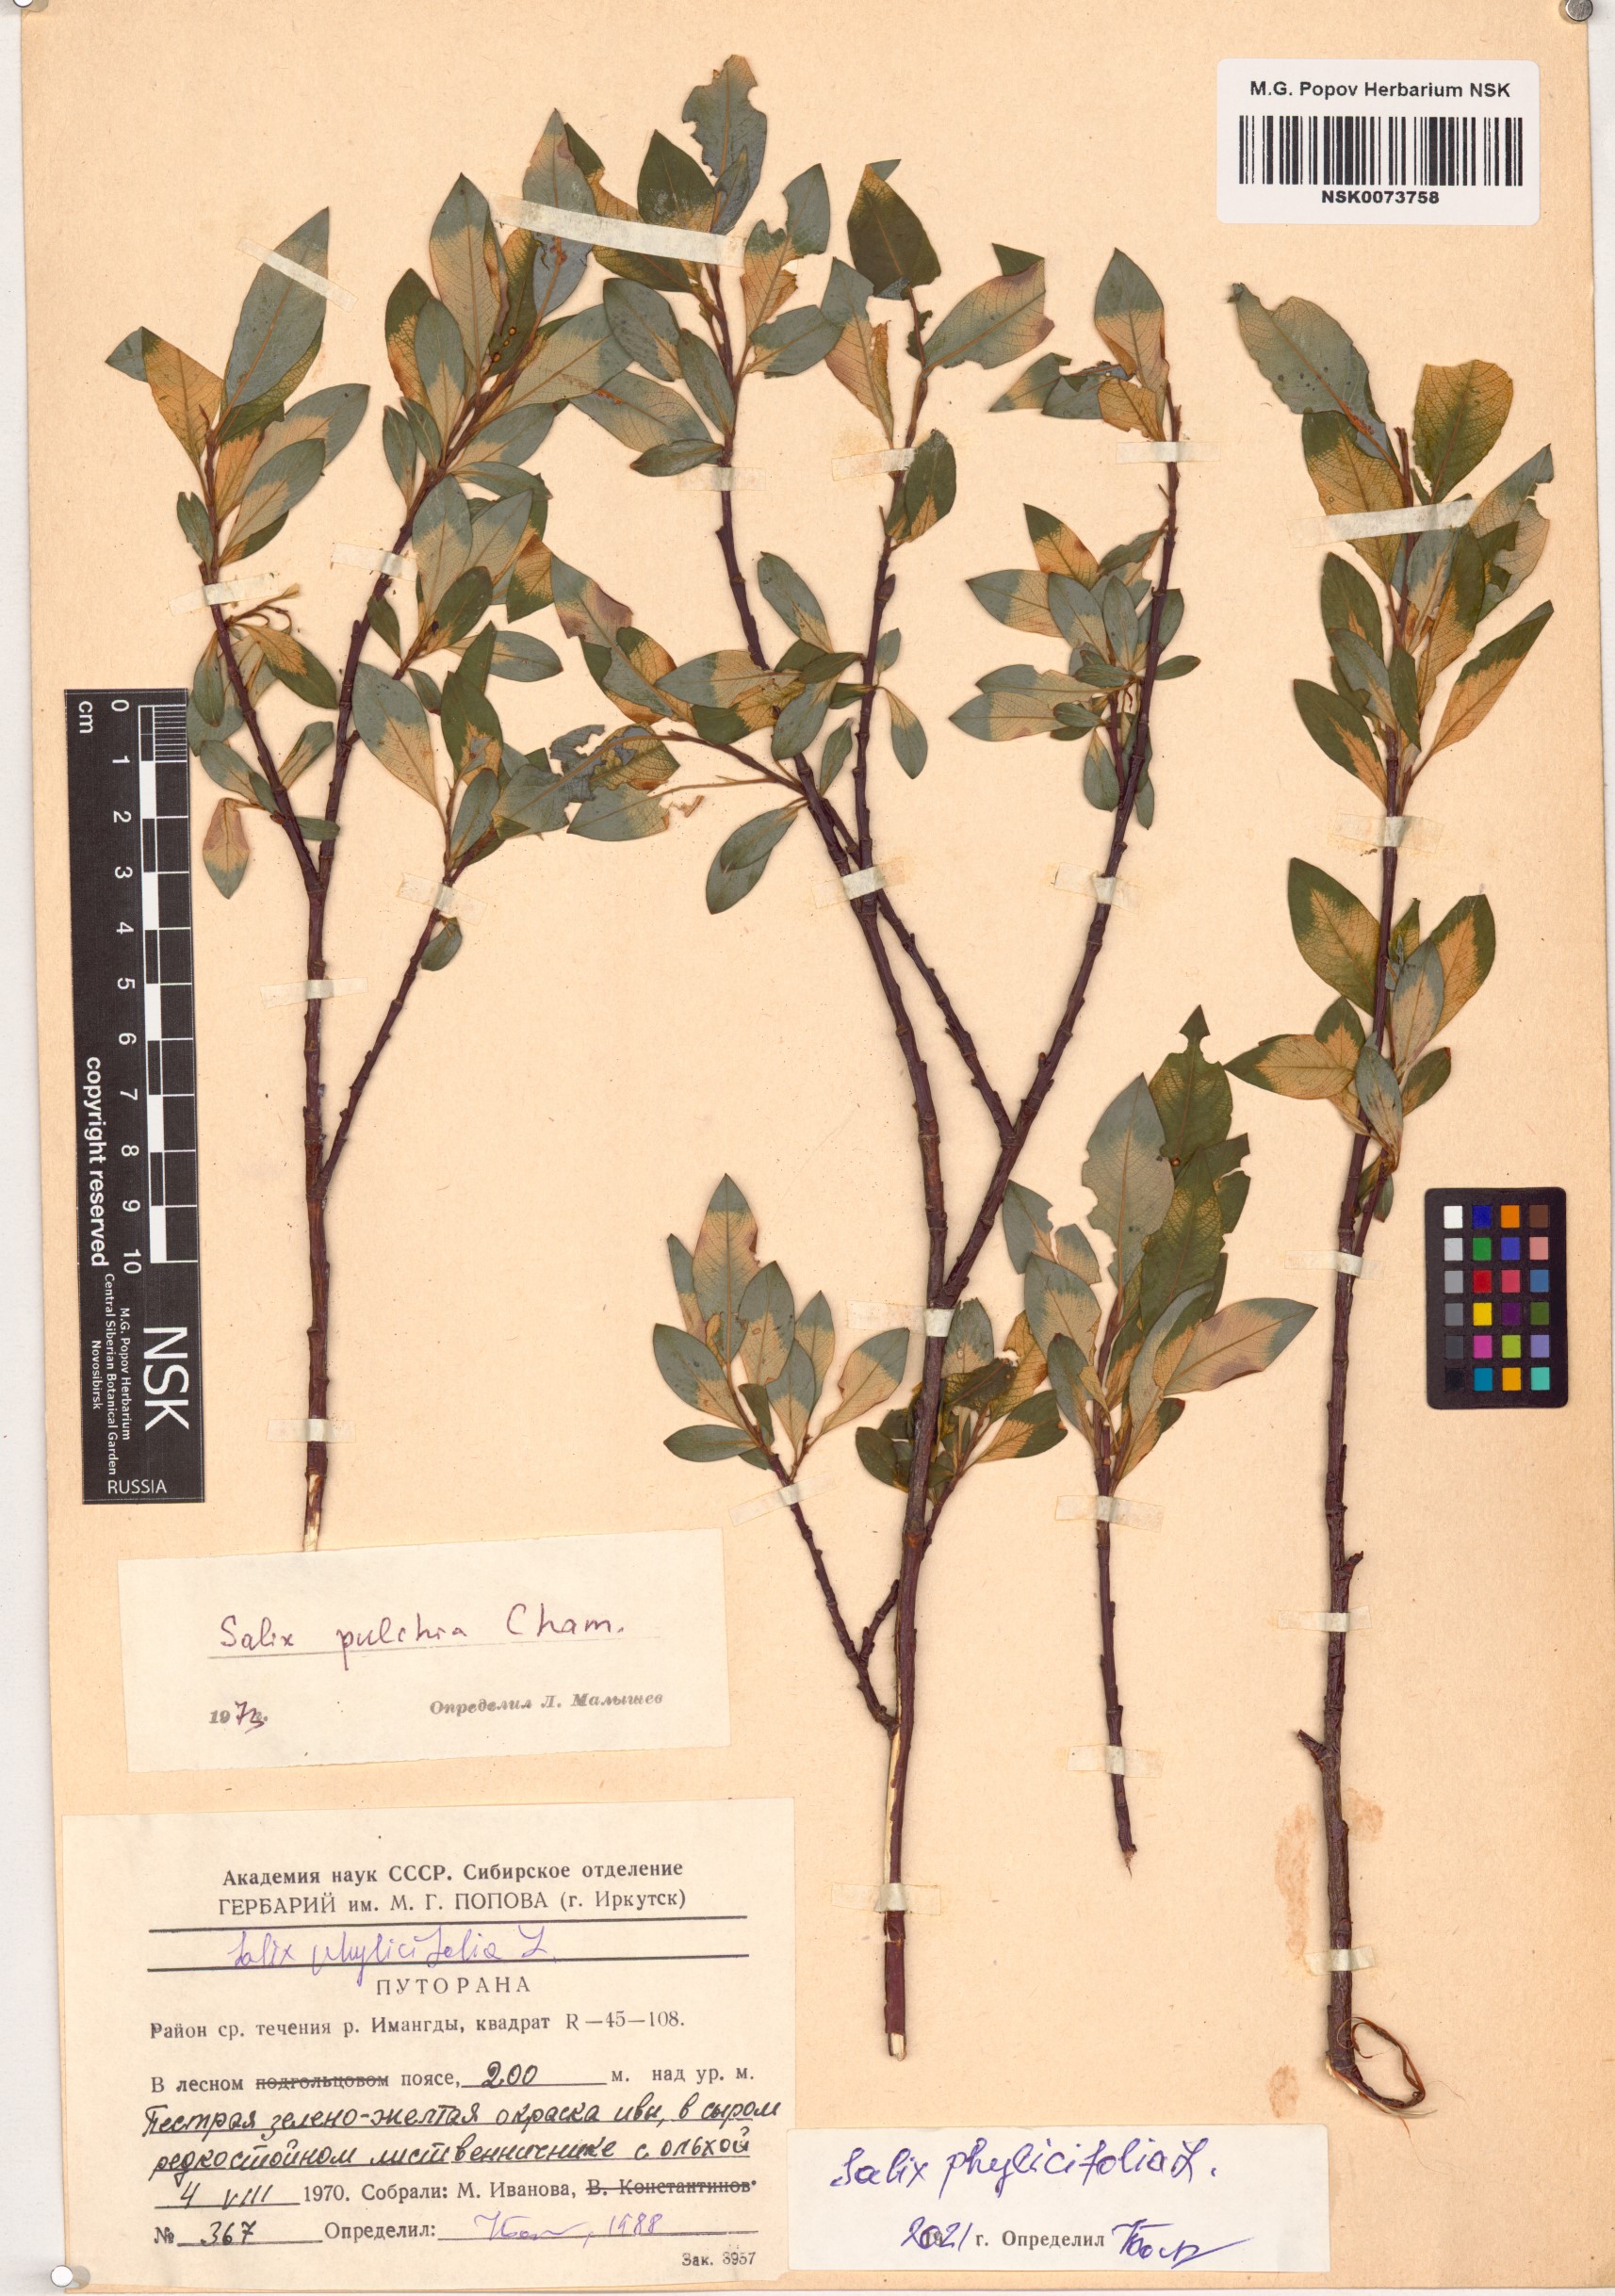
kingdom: Plantae
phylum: Tracheophyta
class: Magnoliopsida
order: Malpighiales
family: Salicaceae
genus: Salix
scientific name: Salix phylicifolia
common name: Tea-leaved willow
